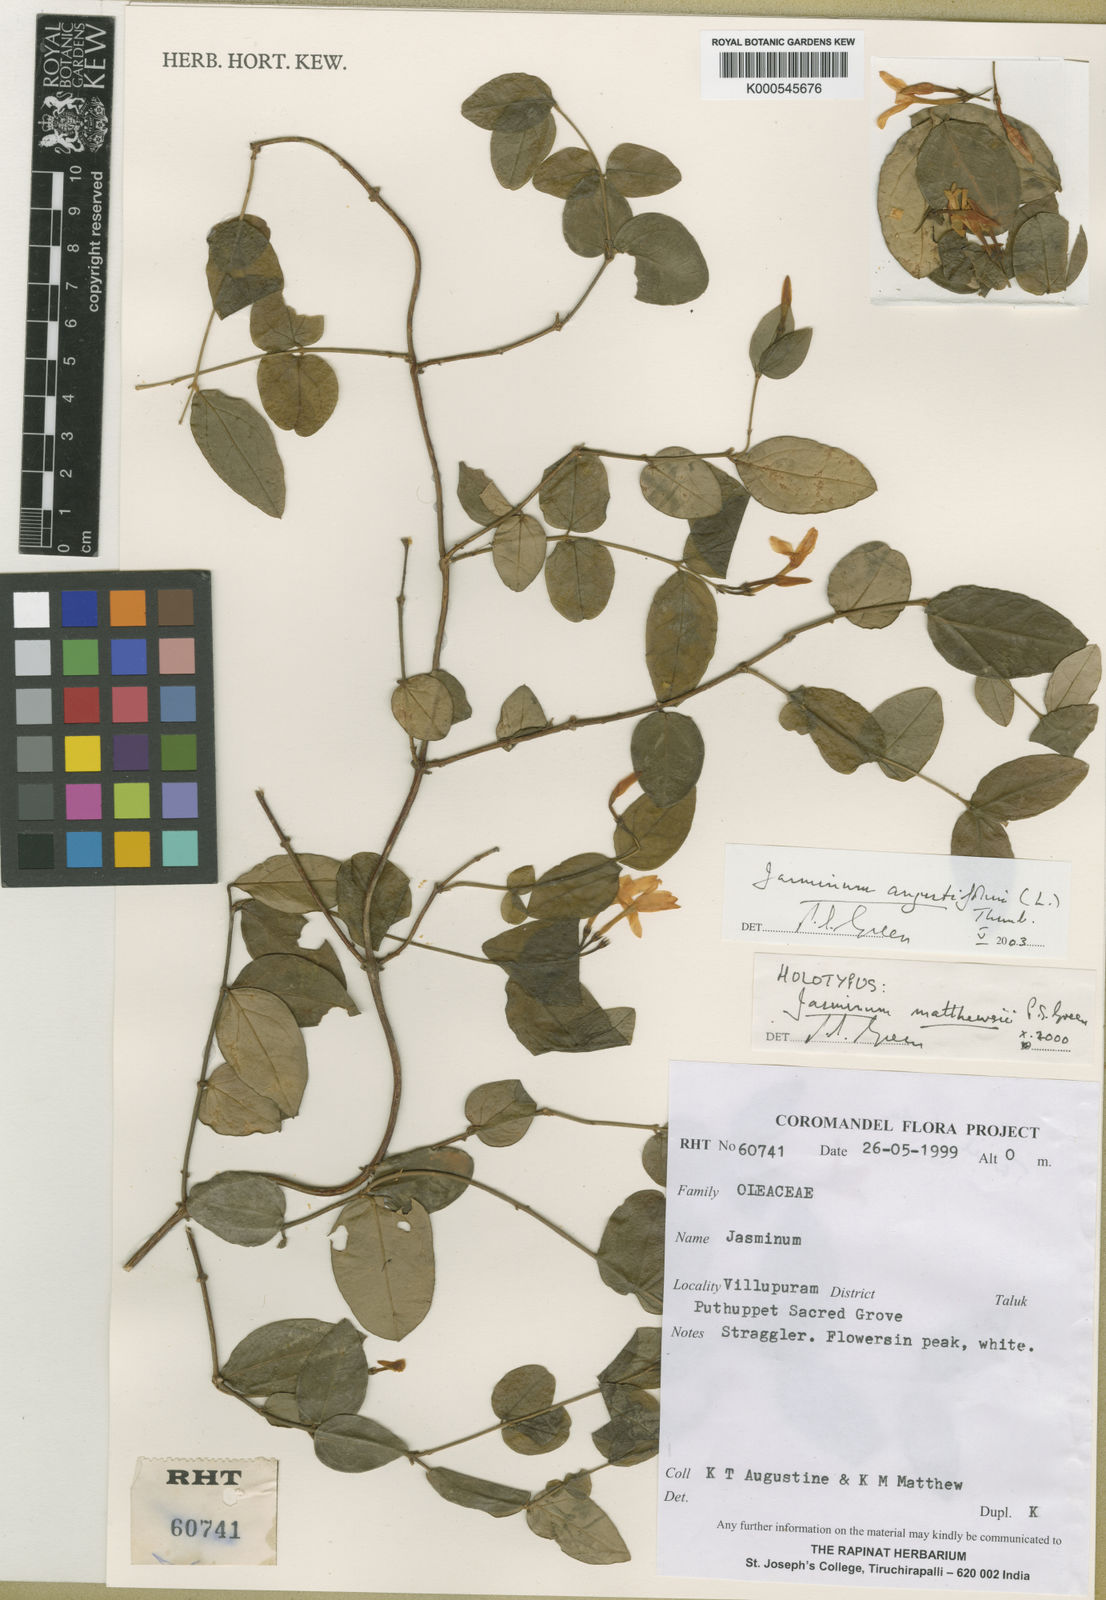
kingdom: Plantae
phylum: Tracheophyta
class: Magnoliopsida
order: Lamiales
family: Oleaceae
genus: Jasminum
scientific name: Jasminum angustifolium
